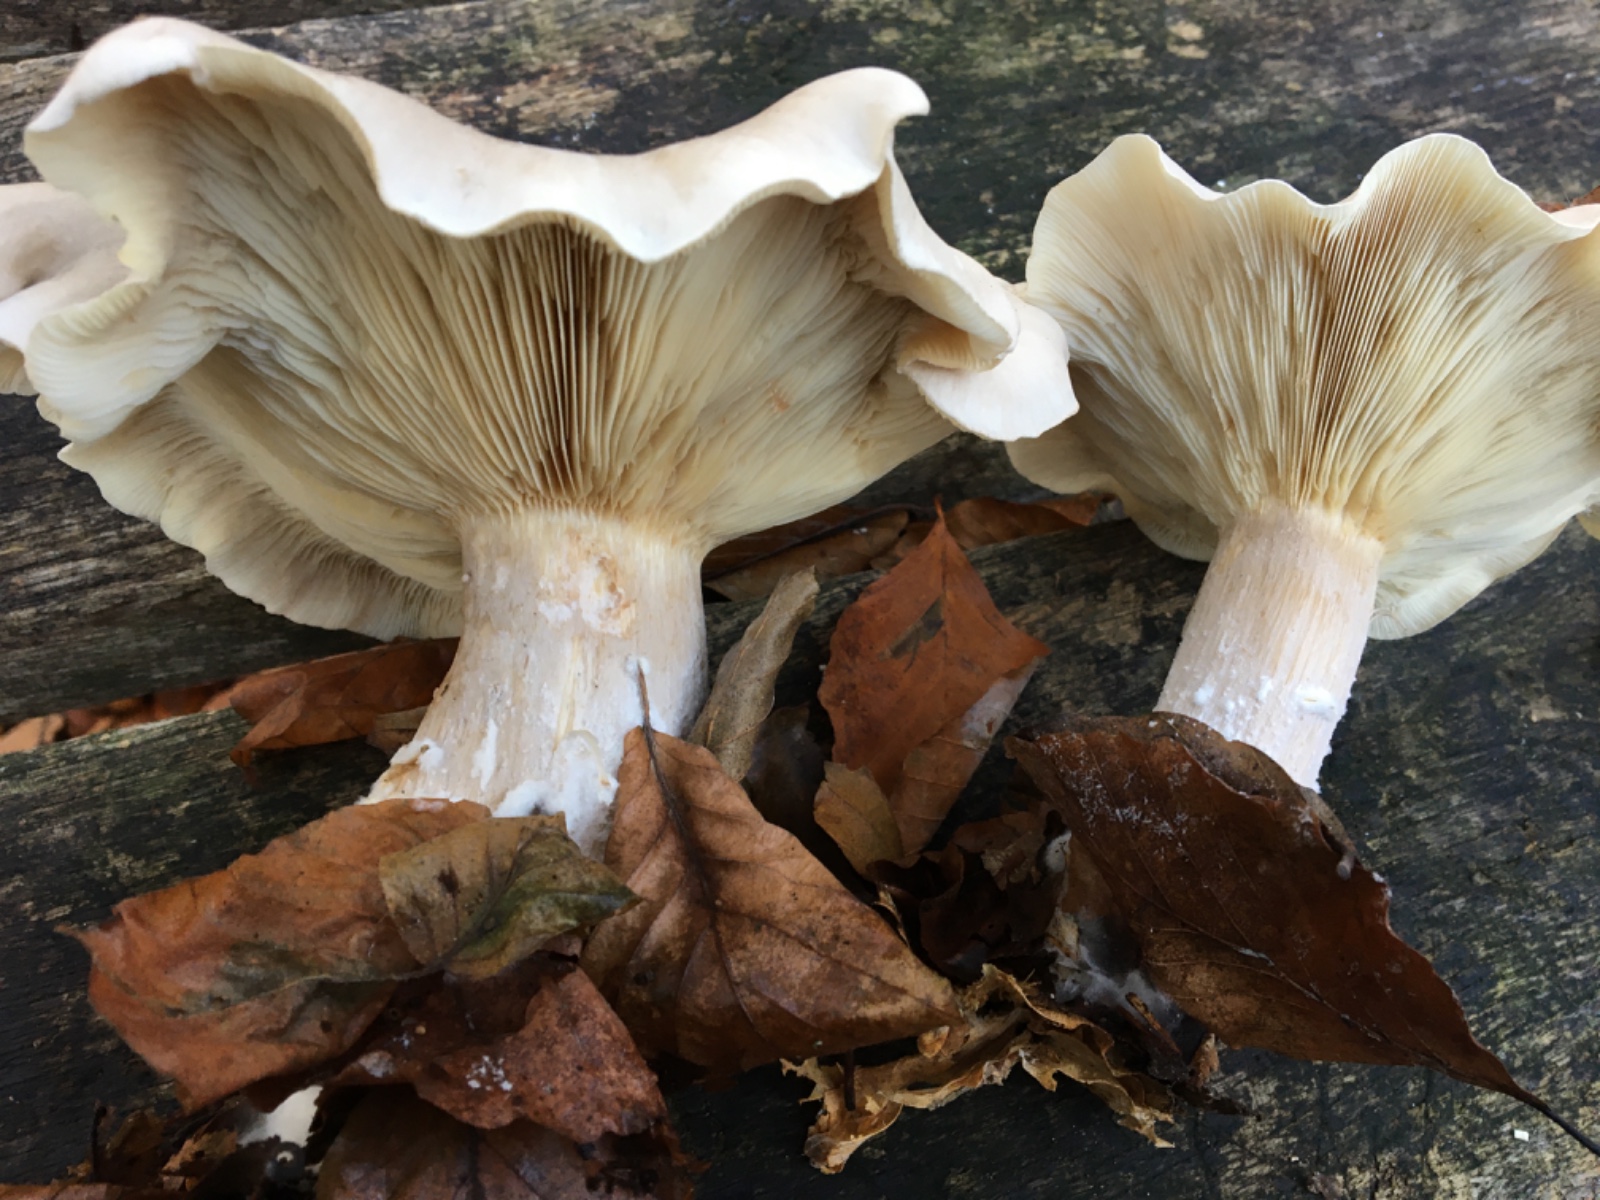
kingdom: Fungi
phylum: Basidiomycota
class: Agaricomycetes
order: Agaricales
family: Tricholomataceae
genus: Clitocybe
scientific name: Clitocybe nebularis
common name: tåge-tragthat
